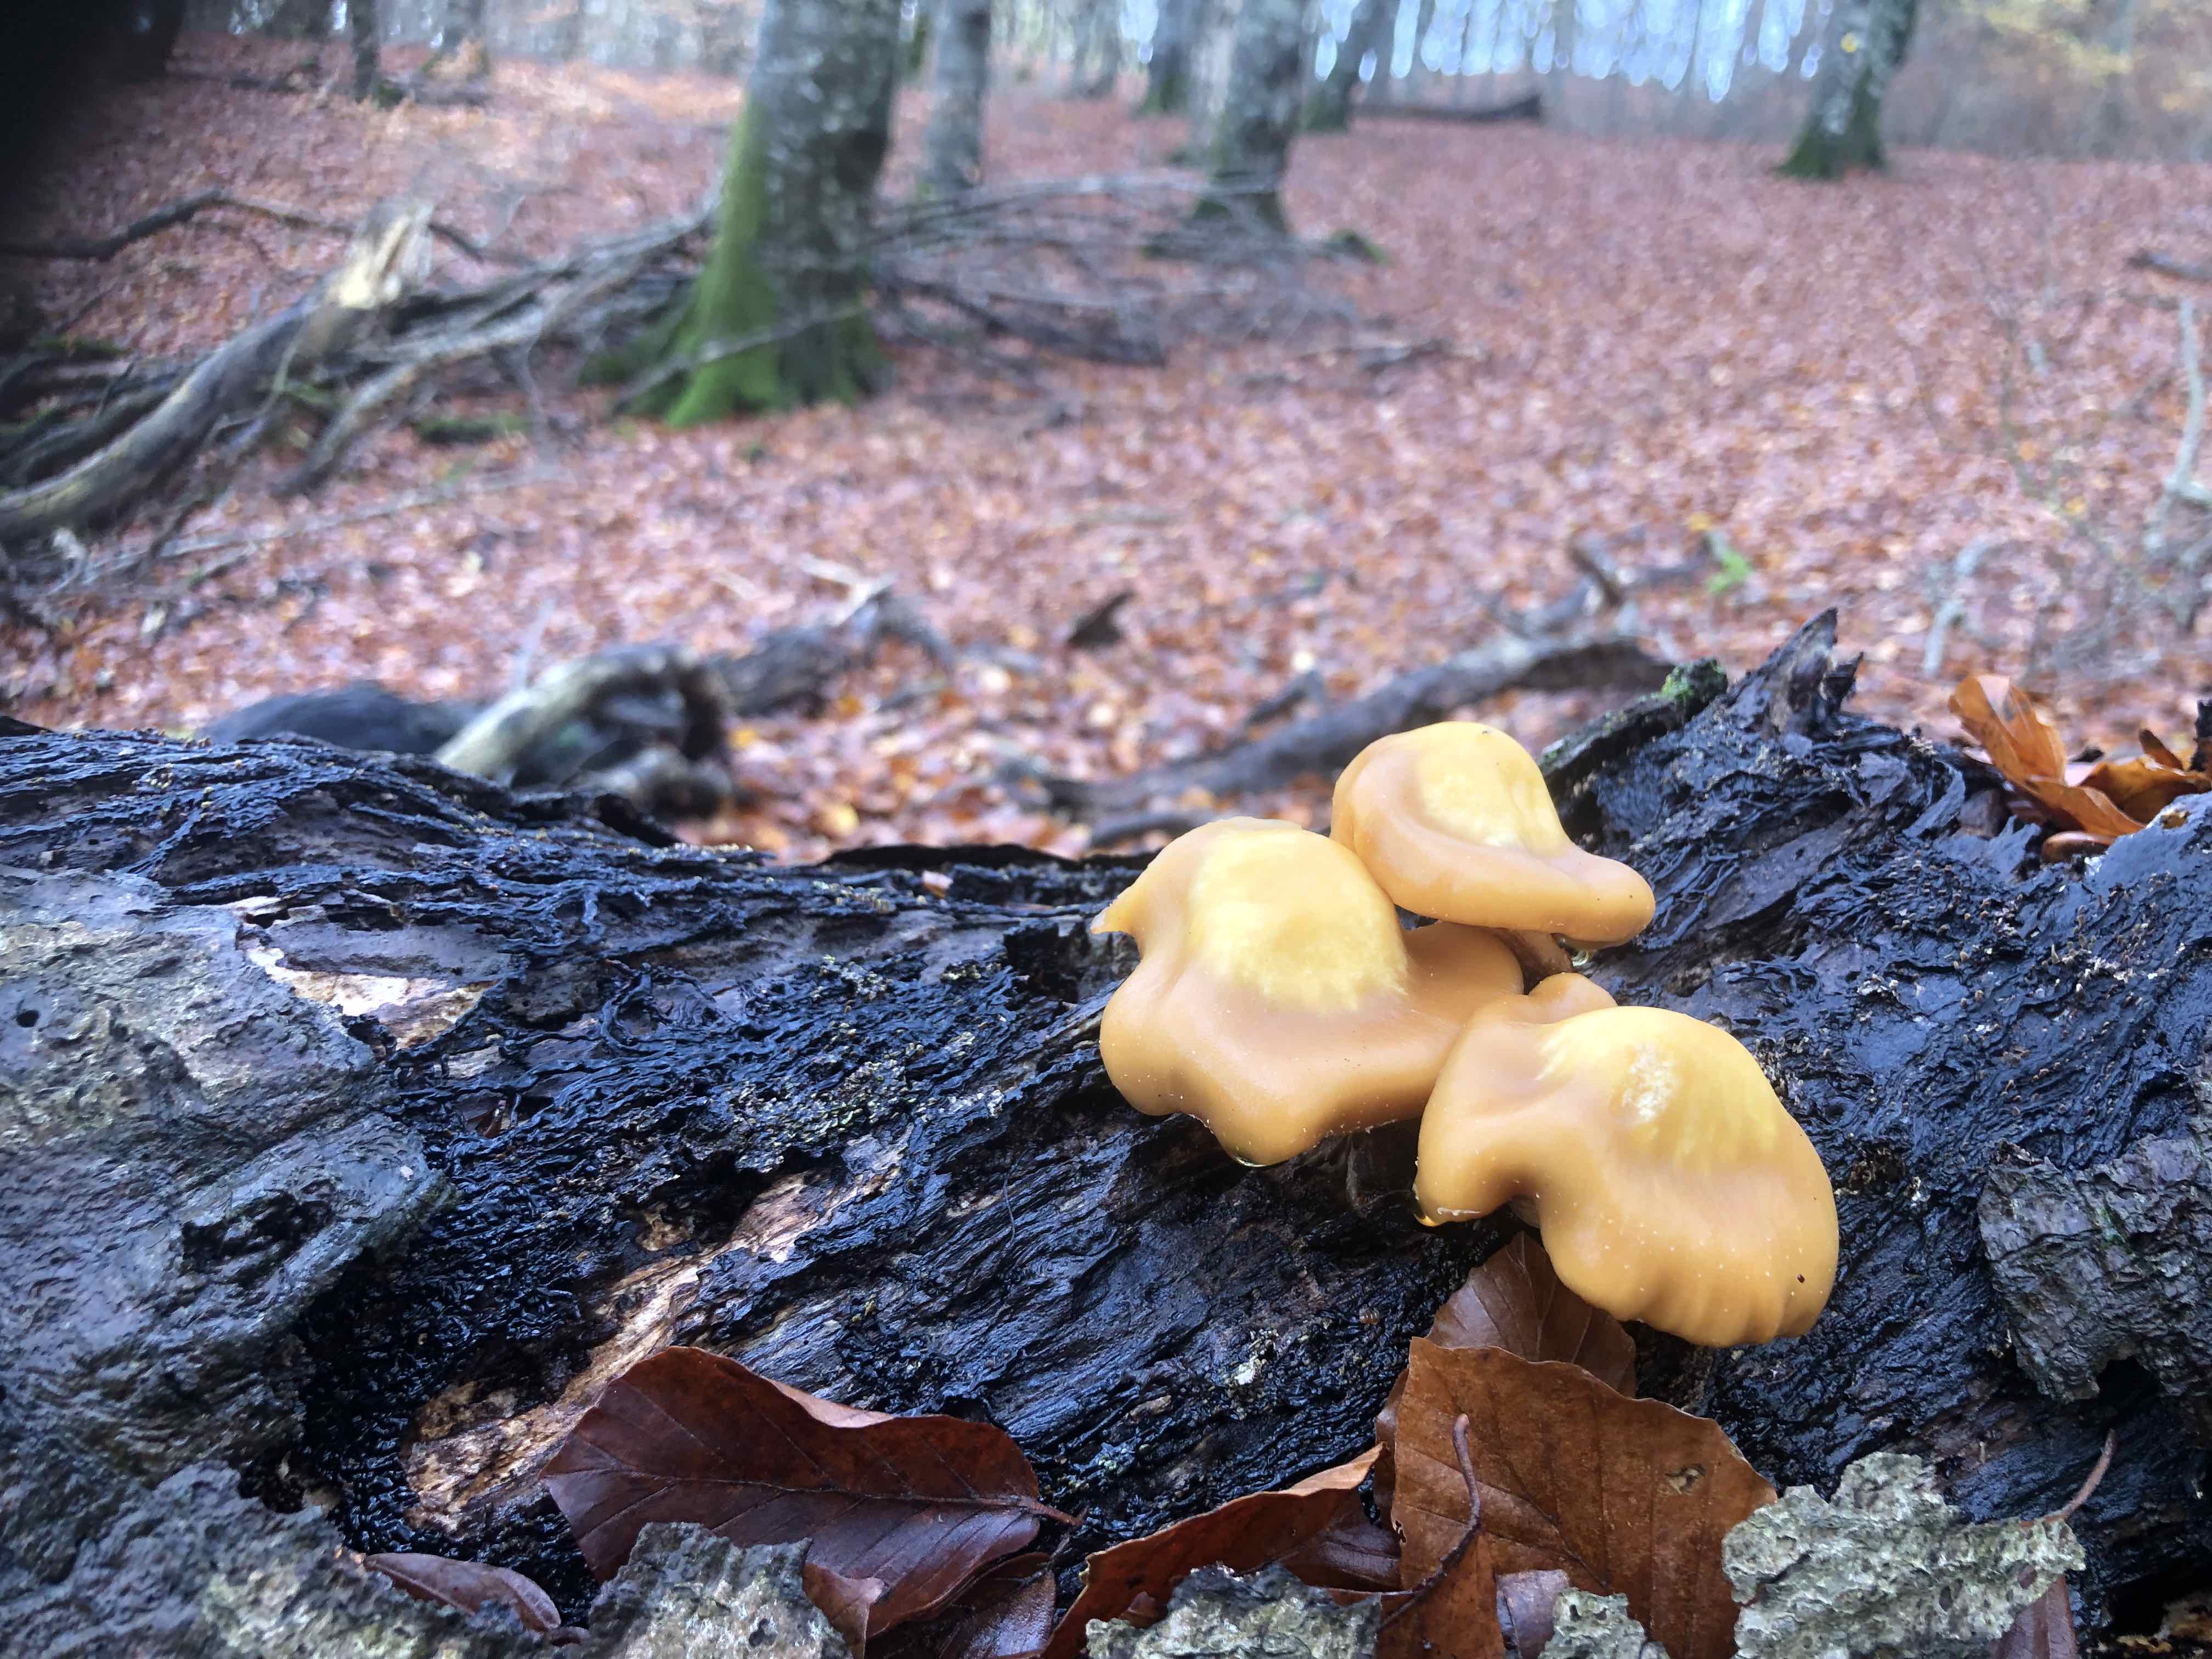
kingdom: Fungi
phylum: Basidiomycota
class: Agaricomycetes
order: Agaricales
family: Strophariaceae
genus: Kuehneromyces
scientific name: Kuehneromyces mutabilis
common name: foranderlig skælhat
